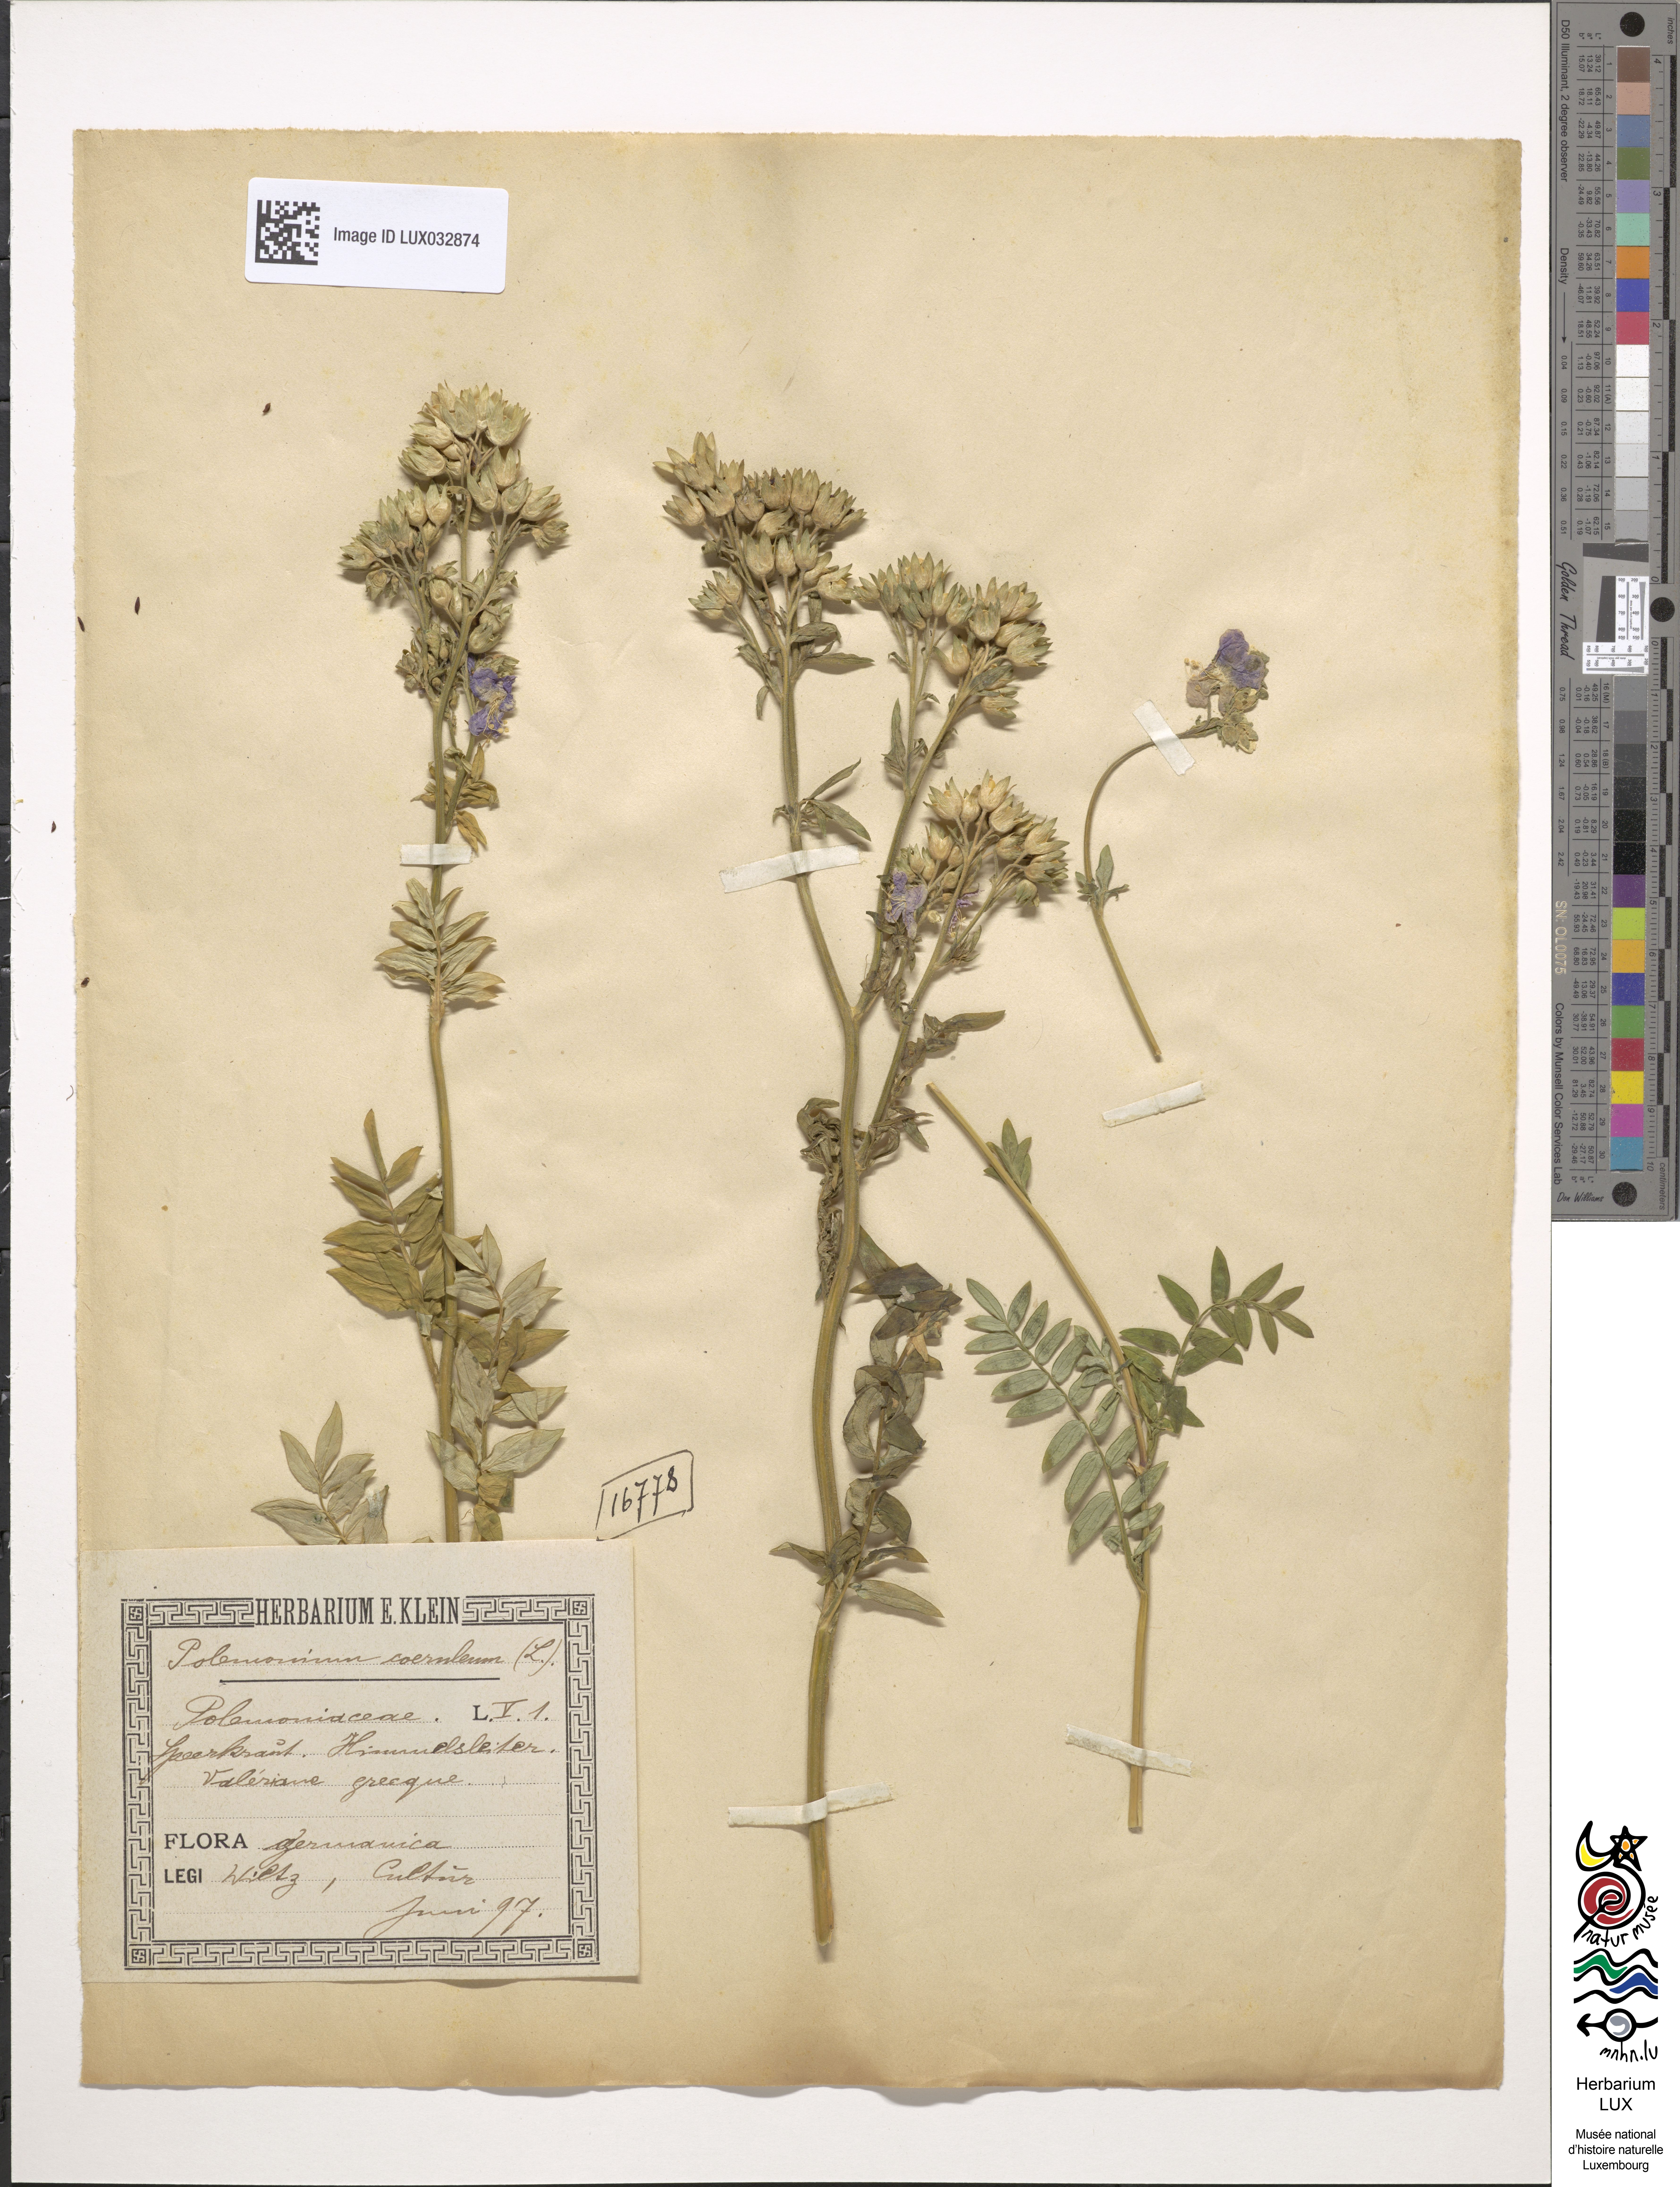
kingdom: Plantae
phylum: Tracheophyta
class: Magnoliopsida
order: Ericales
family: Polemoniaceae
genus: Polemonium
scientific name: Polemonium caeruleum
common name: Jacob's-ladder
